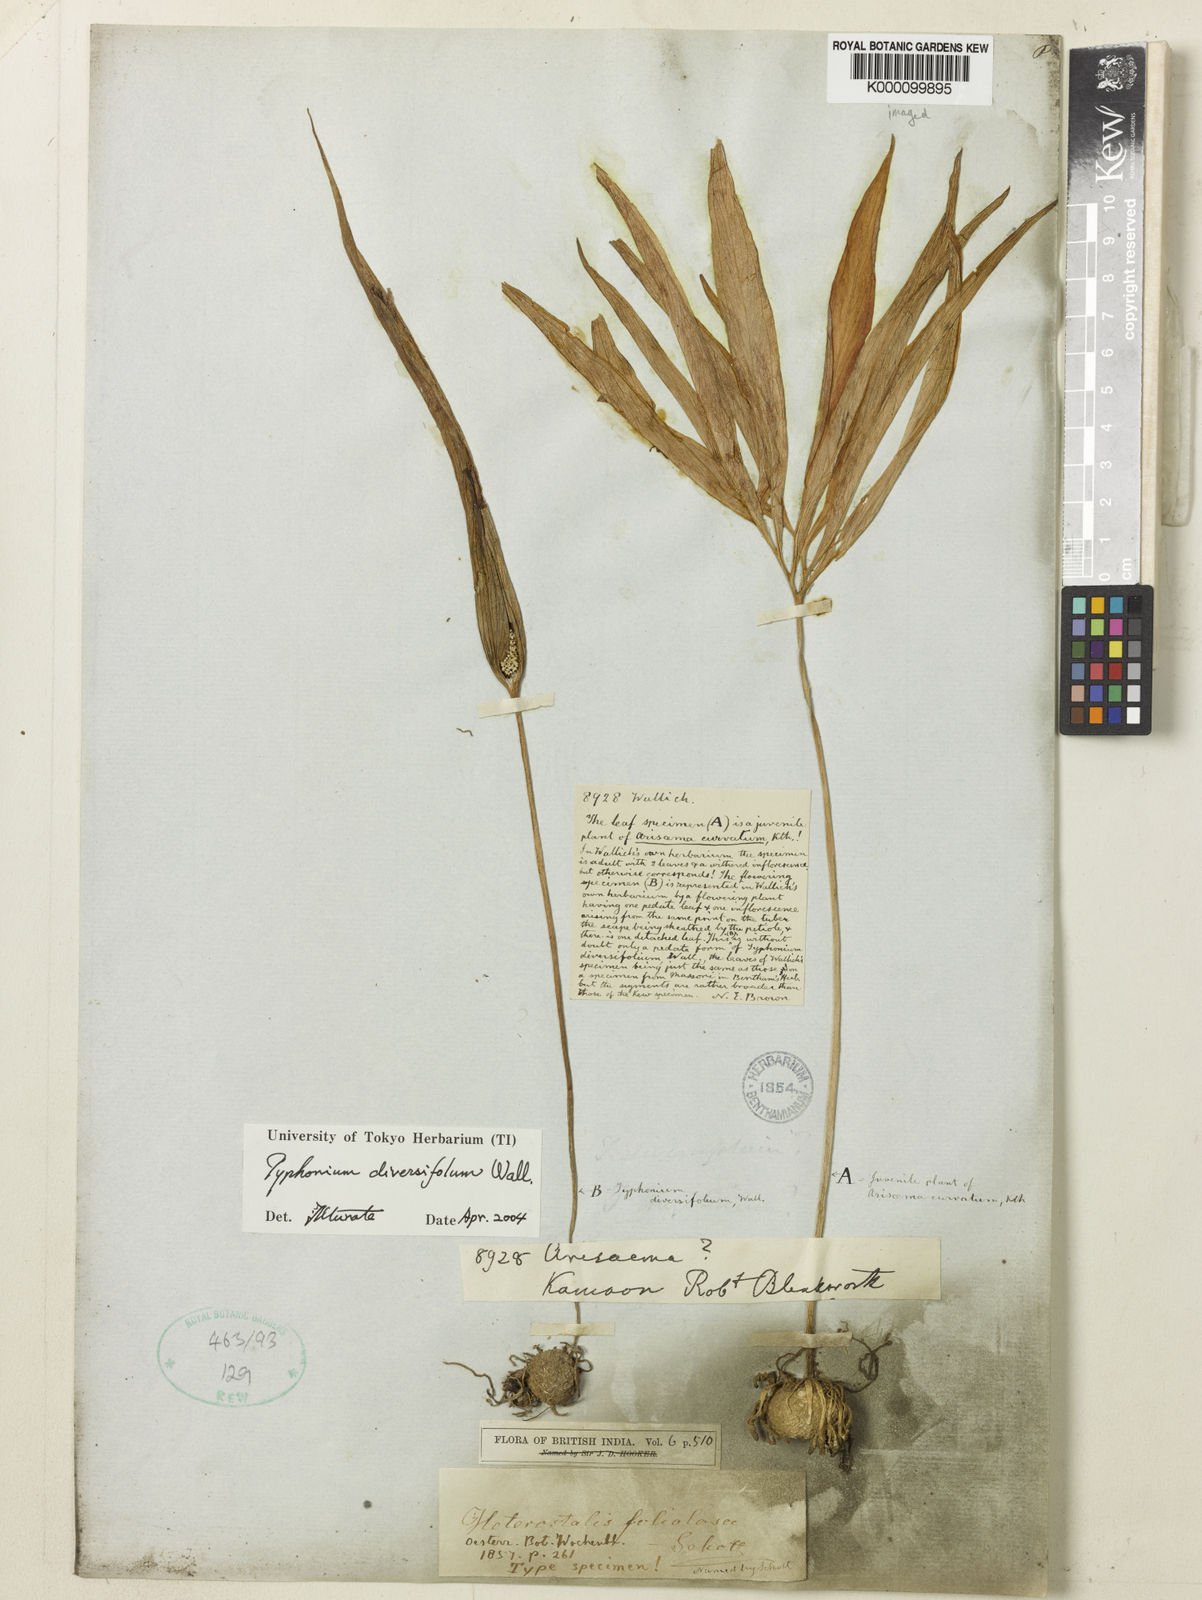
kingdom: Plantae
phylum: Tracheophyta
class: Liliopsida
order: Alismatales
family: Araceae
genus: Typhonium
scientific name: Typhonium
